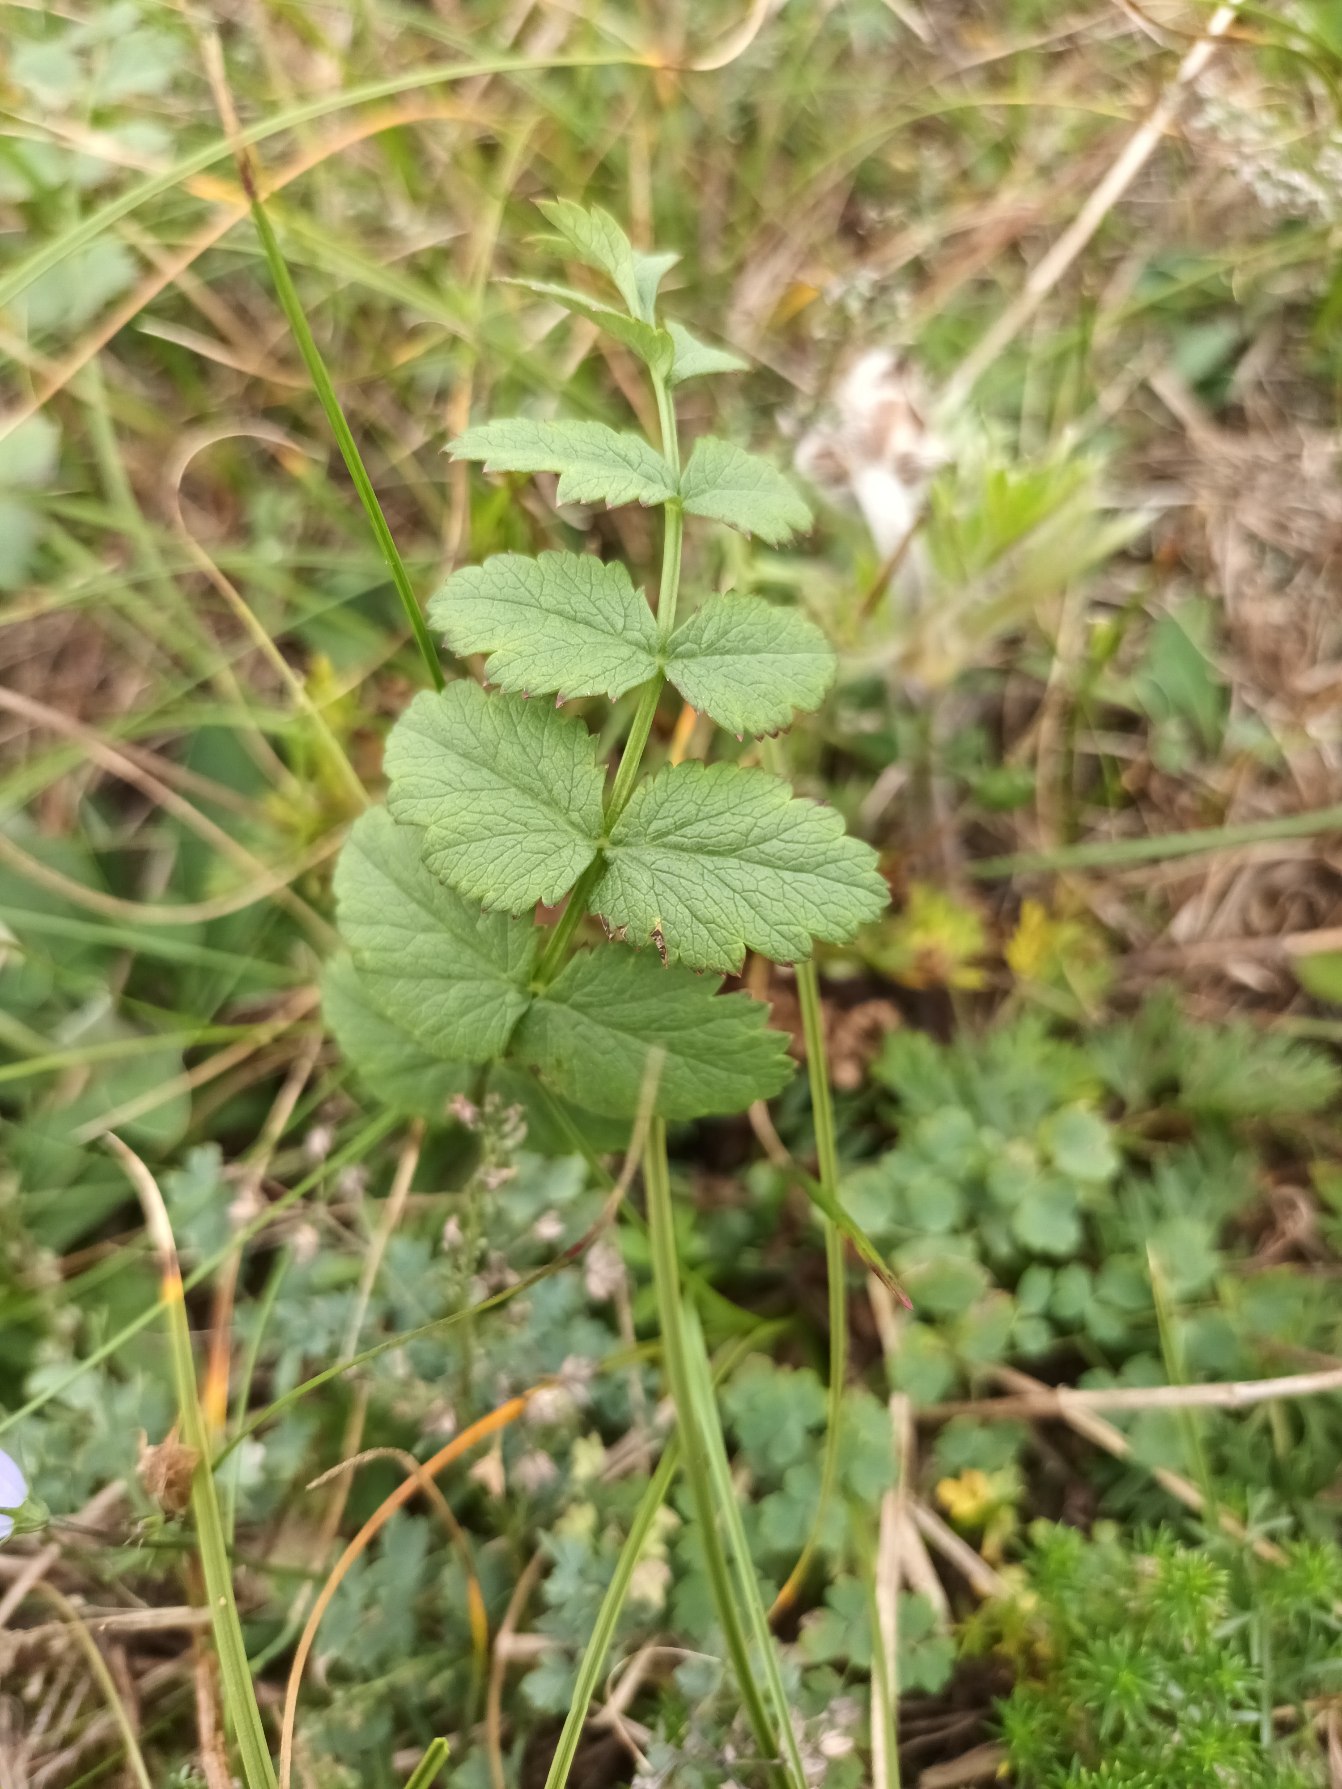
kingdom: Plantae
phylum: Tracheophyta
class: Magnoliopsida
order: Apiales
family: Apiaceae
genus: Pimpinella
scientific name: Pimpinella saxifraga
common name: Almindelig pimpinelle
